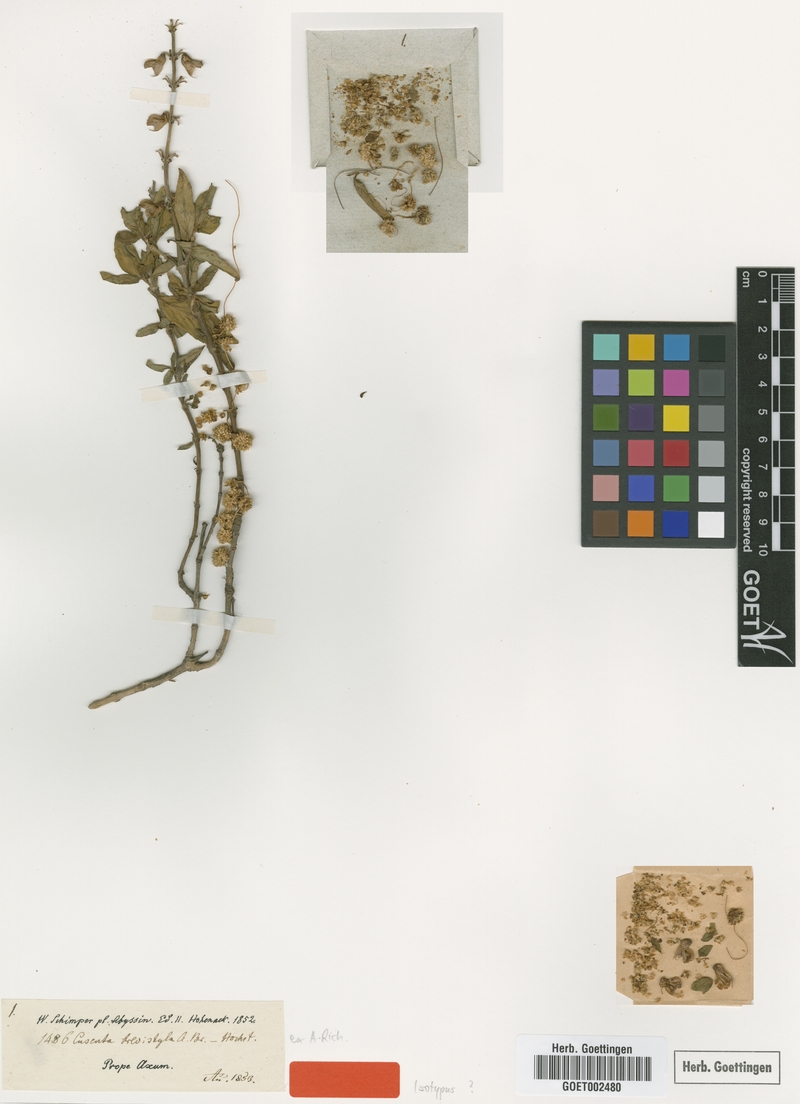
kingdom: Plantae
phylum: Tracheophyta
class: Magnoliopsida
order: Solanales
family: Convolvulaceae
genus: Cuscuta
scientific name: Cuscuta brevistyla
